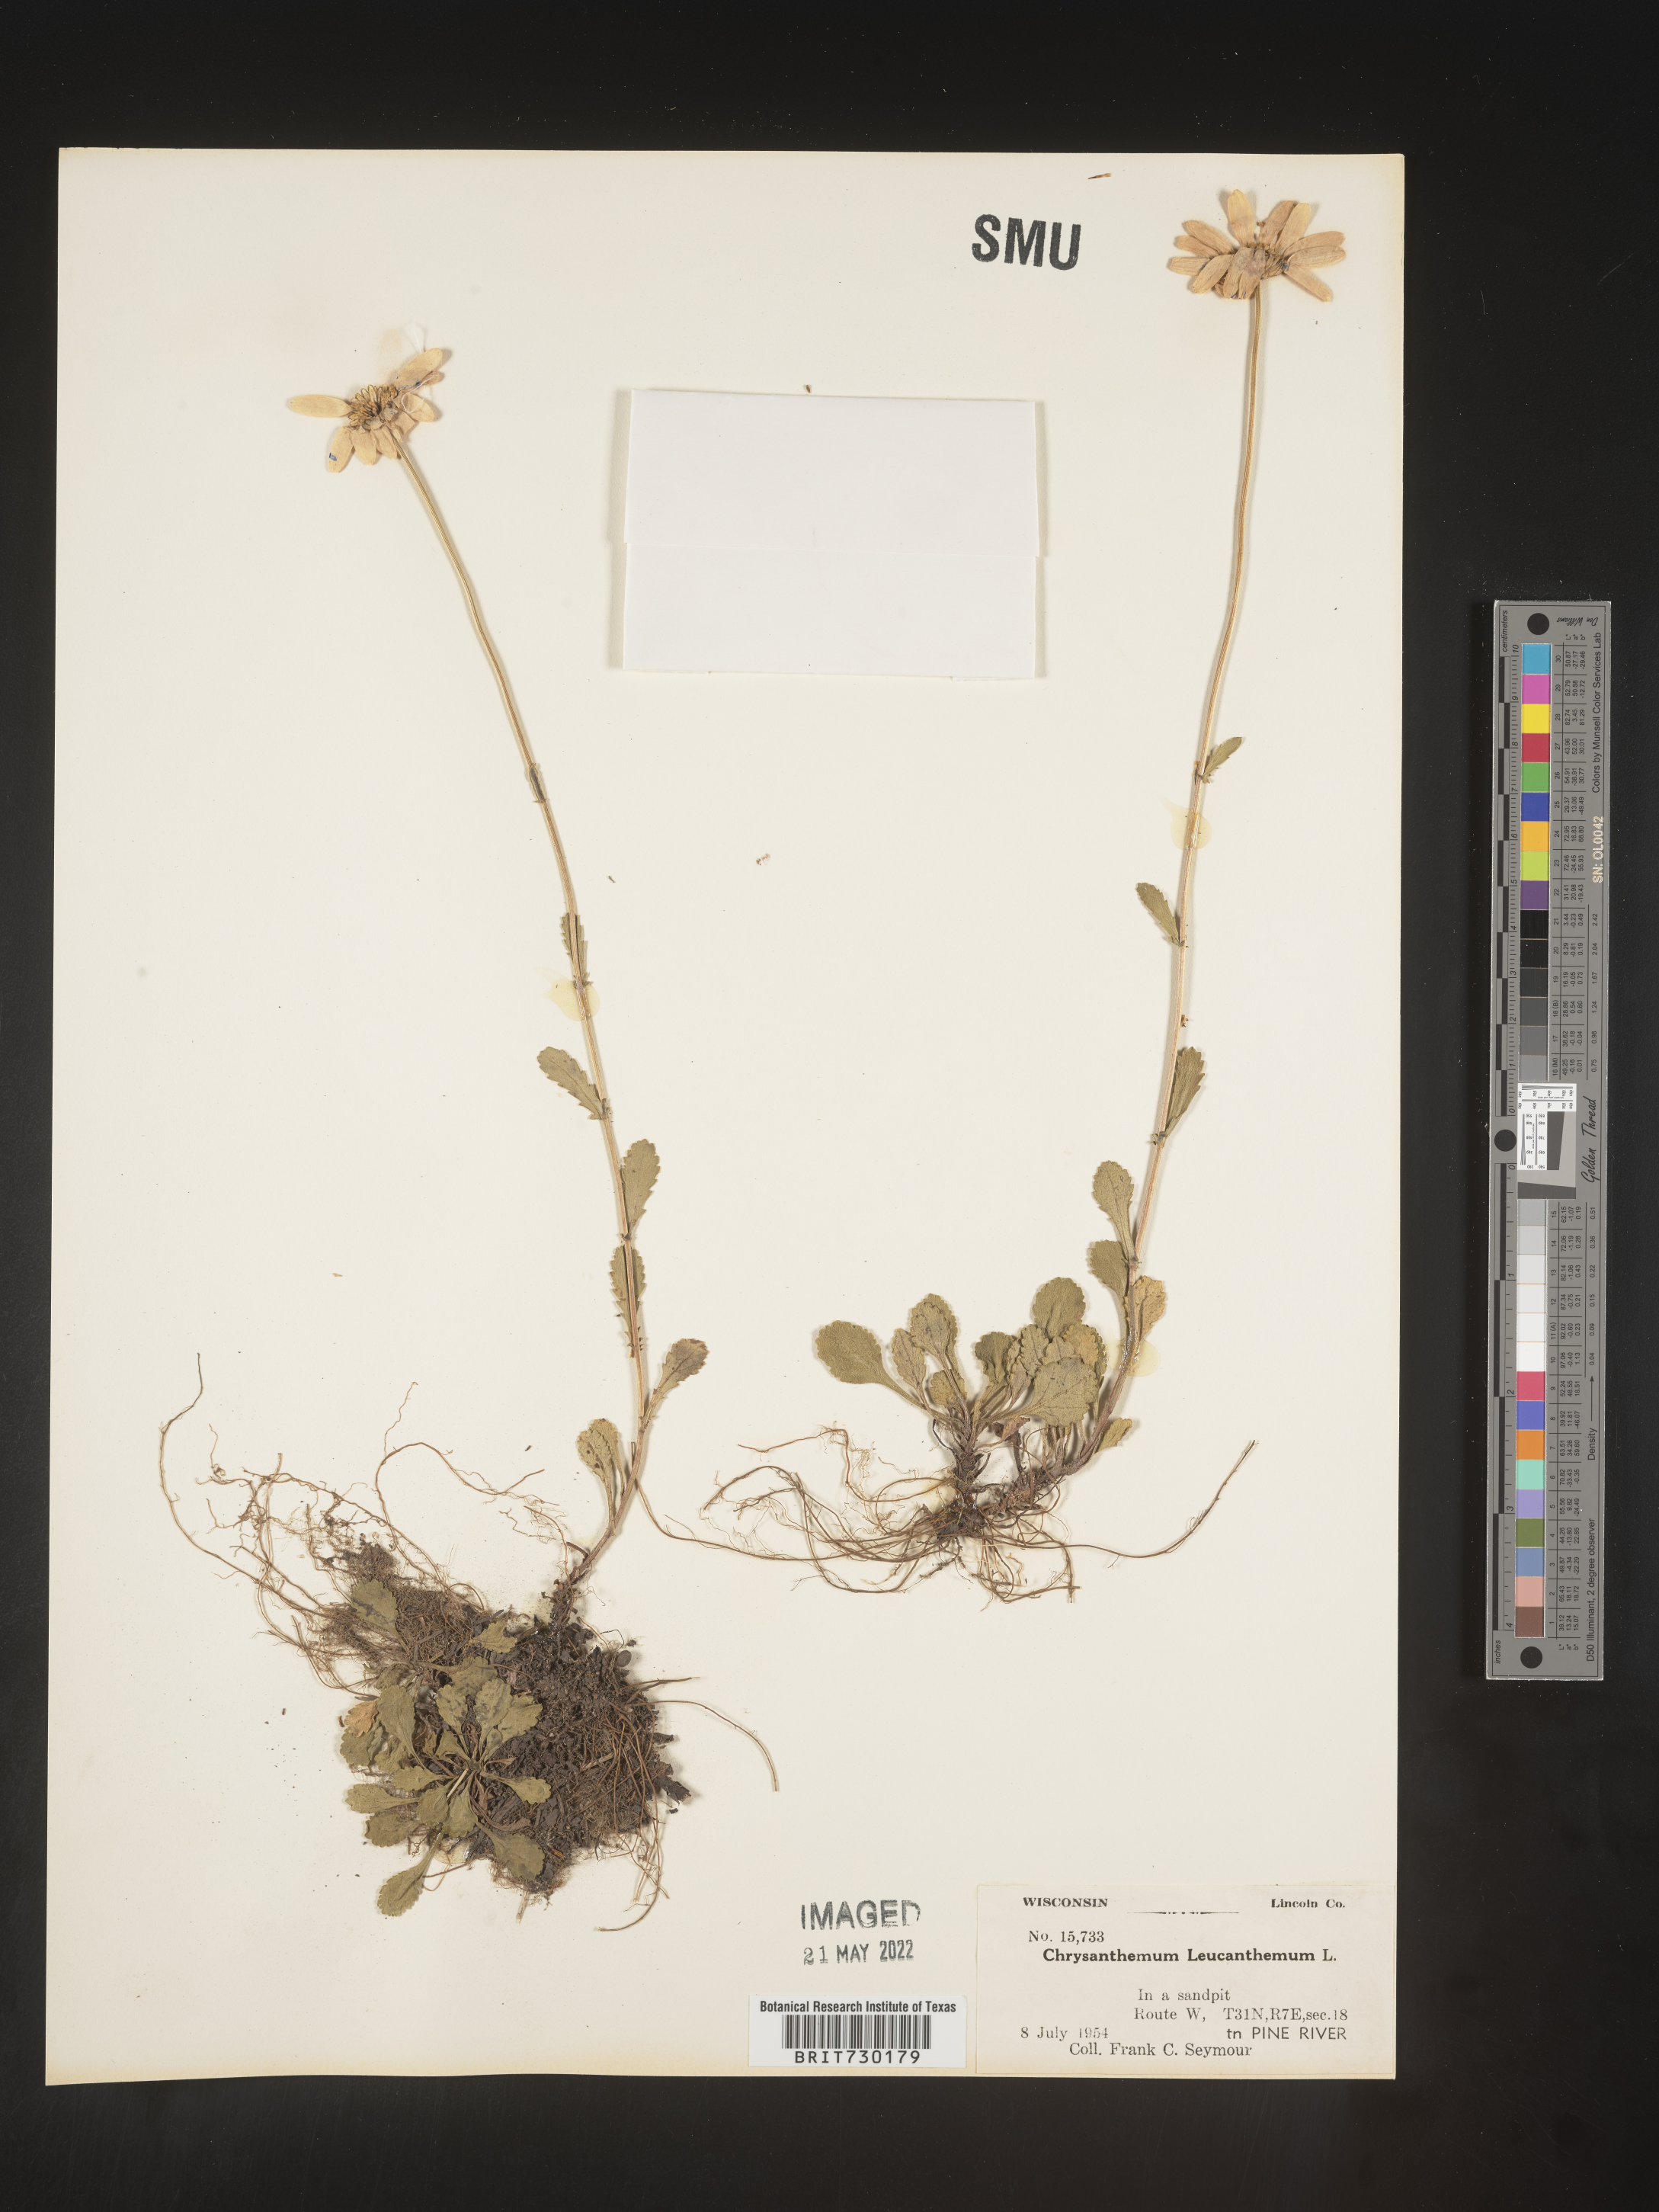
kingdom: Plantae
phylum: Tracheophyta
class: Magnoliopsida
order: Asterales
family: Asteraceae
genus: Leucanthemum
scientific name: Leucanthemum vulgare
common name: Oxeye daisy
